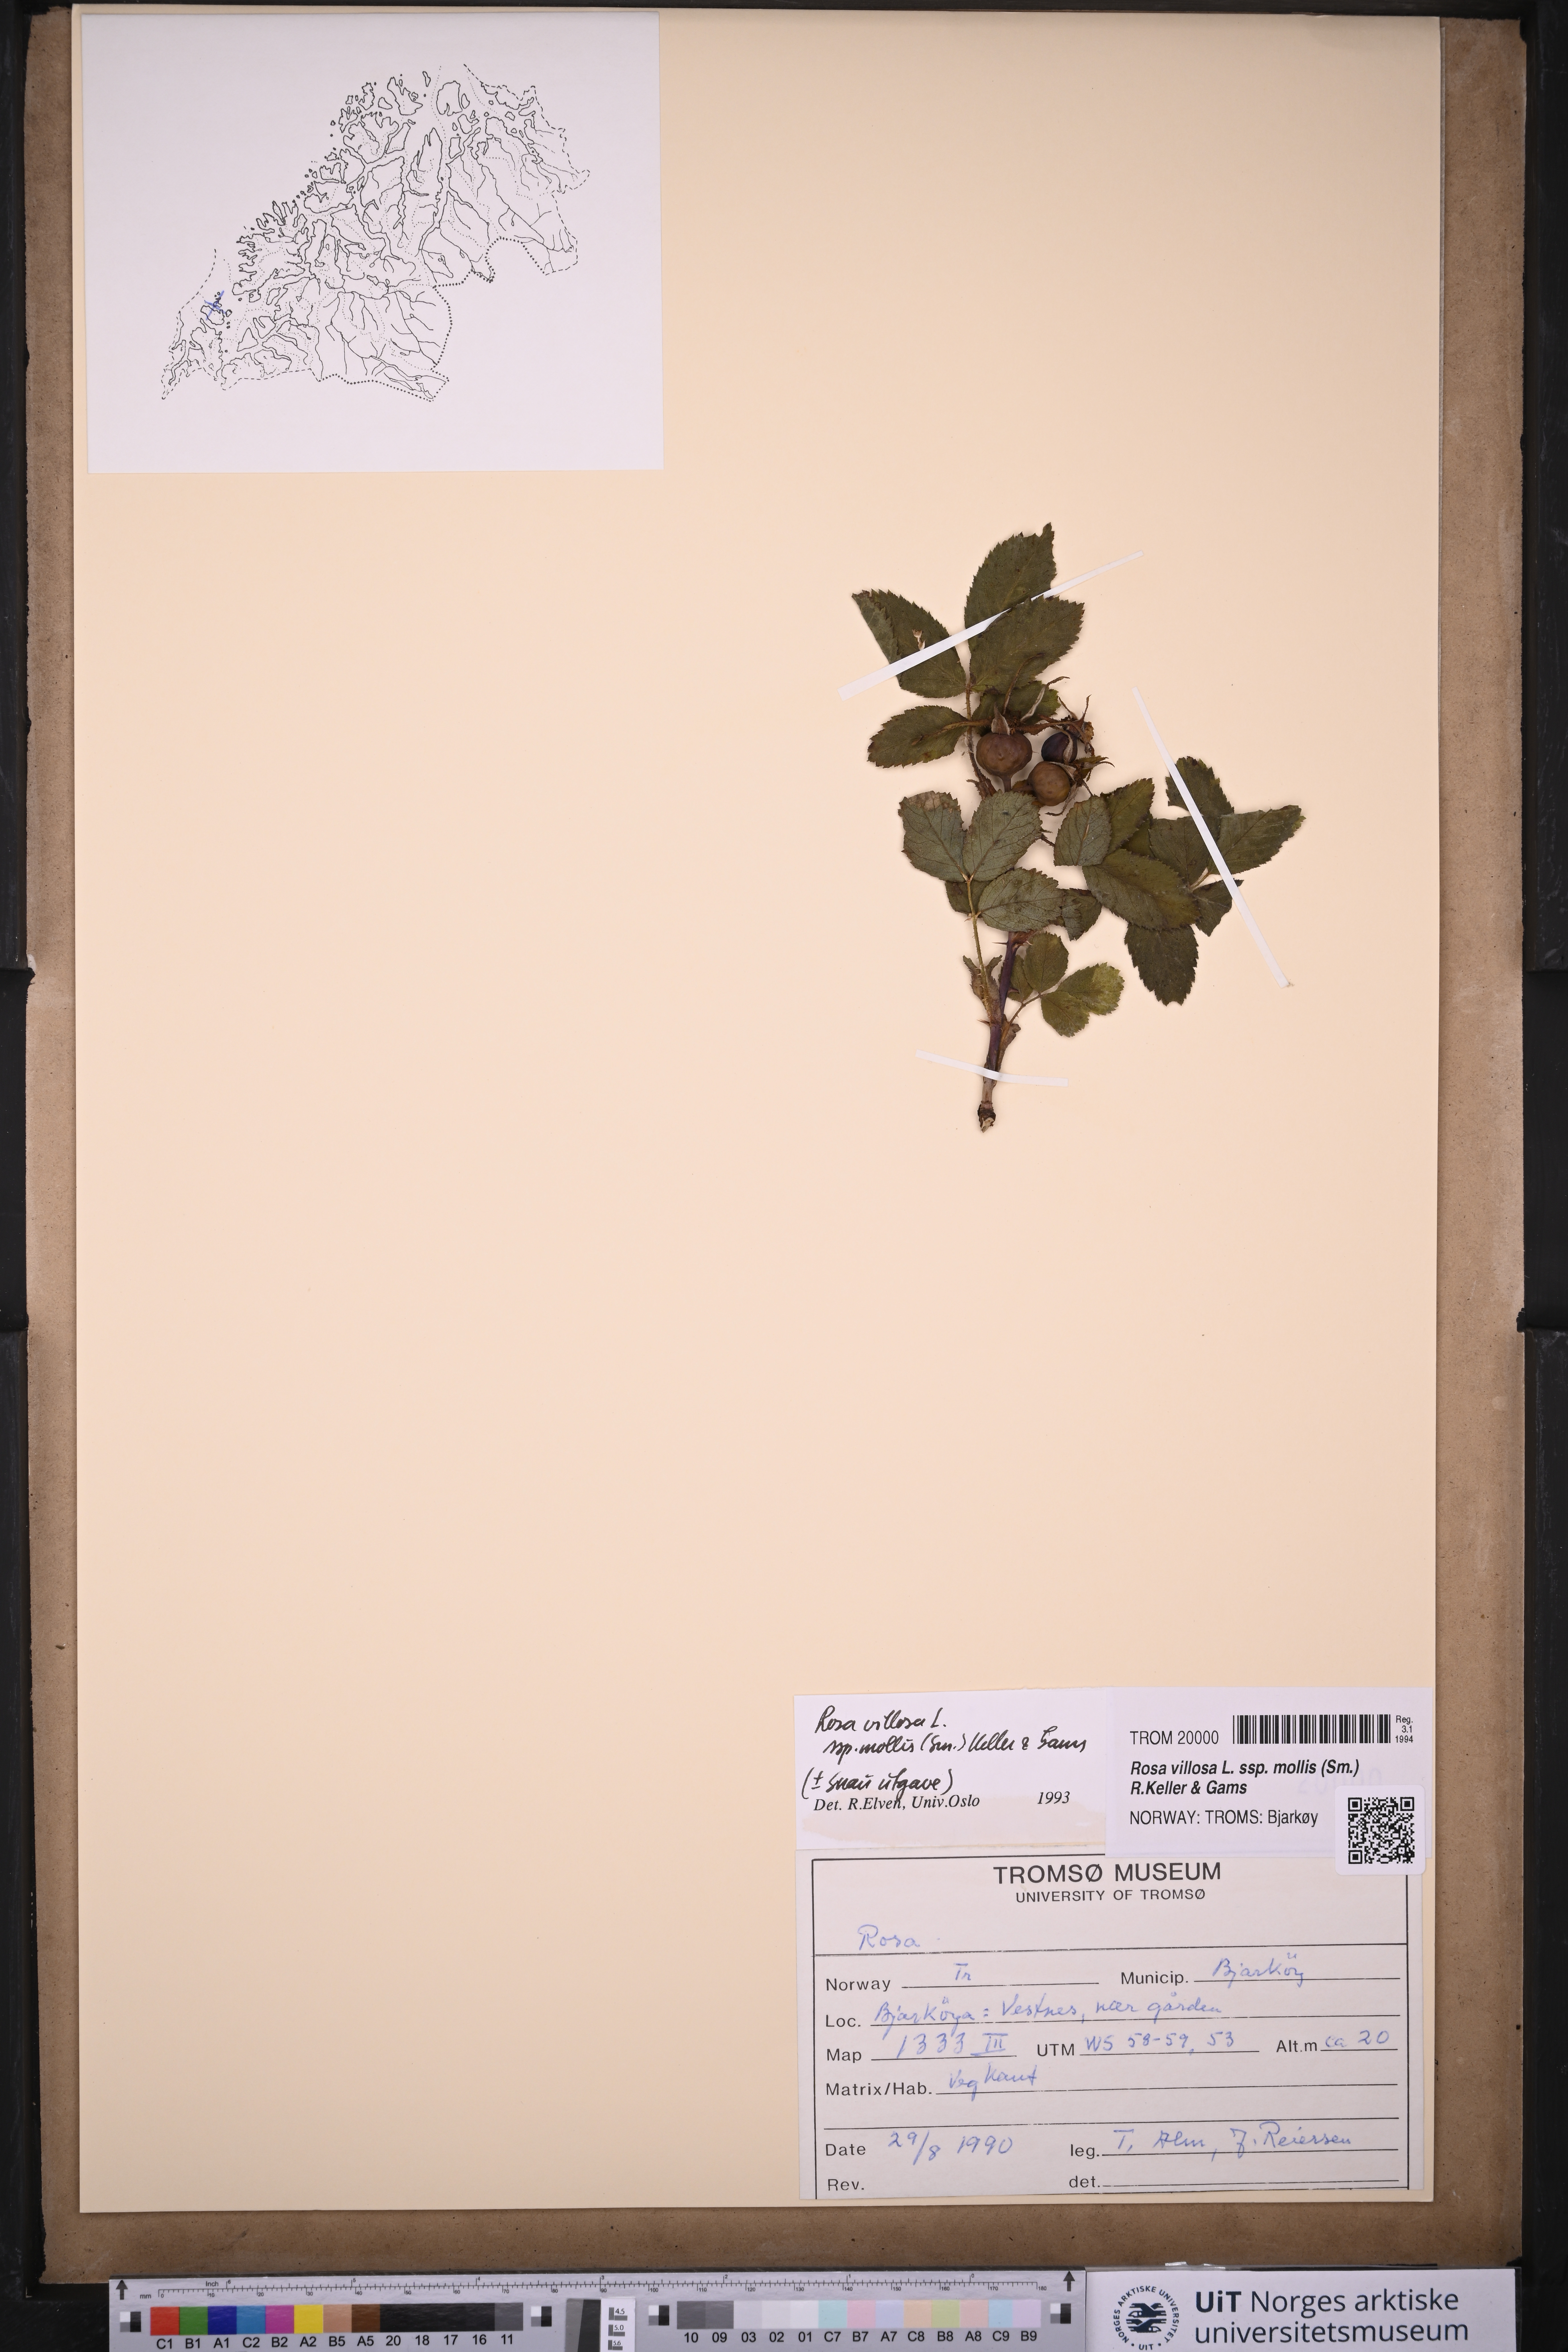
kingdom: Plantae
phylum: Tracheophyta
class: Magnoliopsida
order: Rosales
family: Rosaceae
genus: Rosa
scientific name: Rosa mollis
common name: Rose
